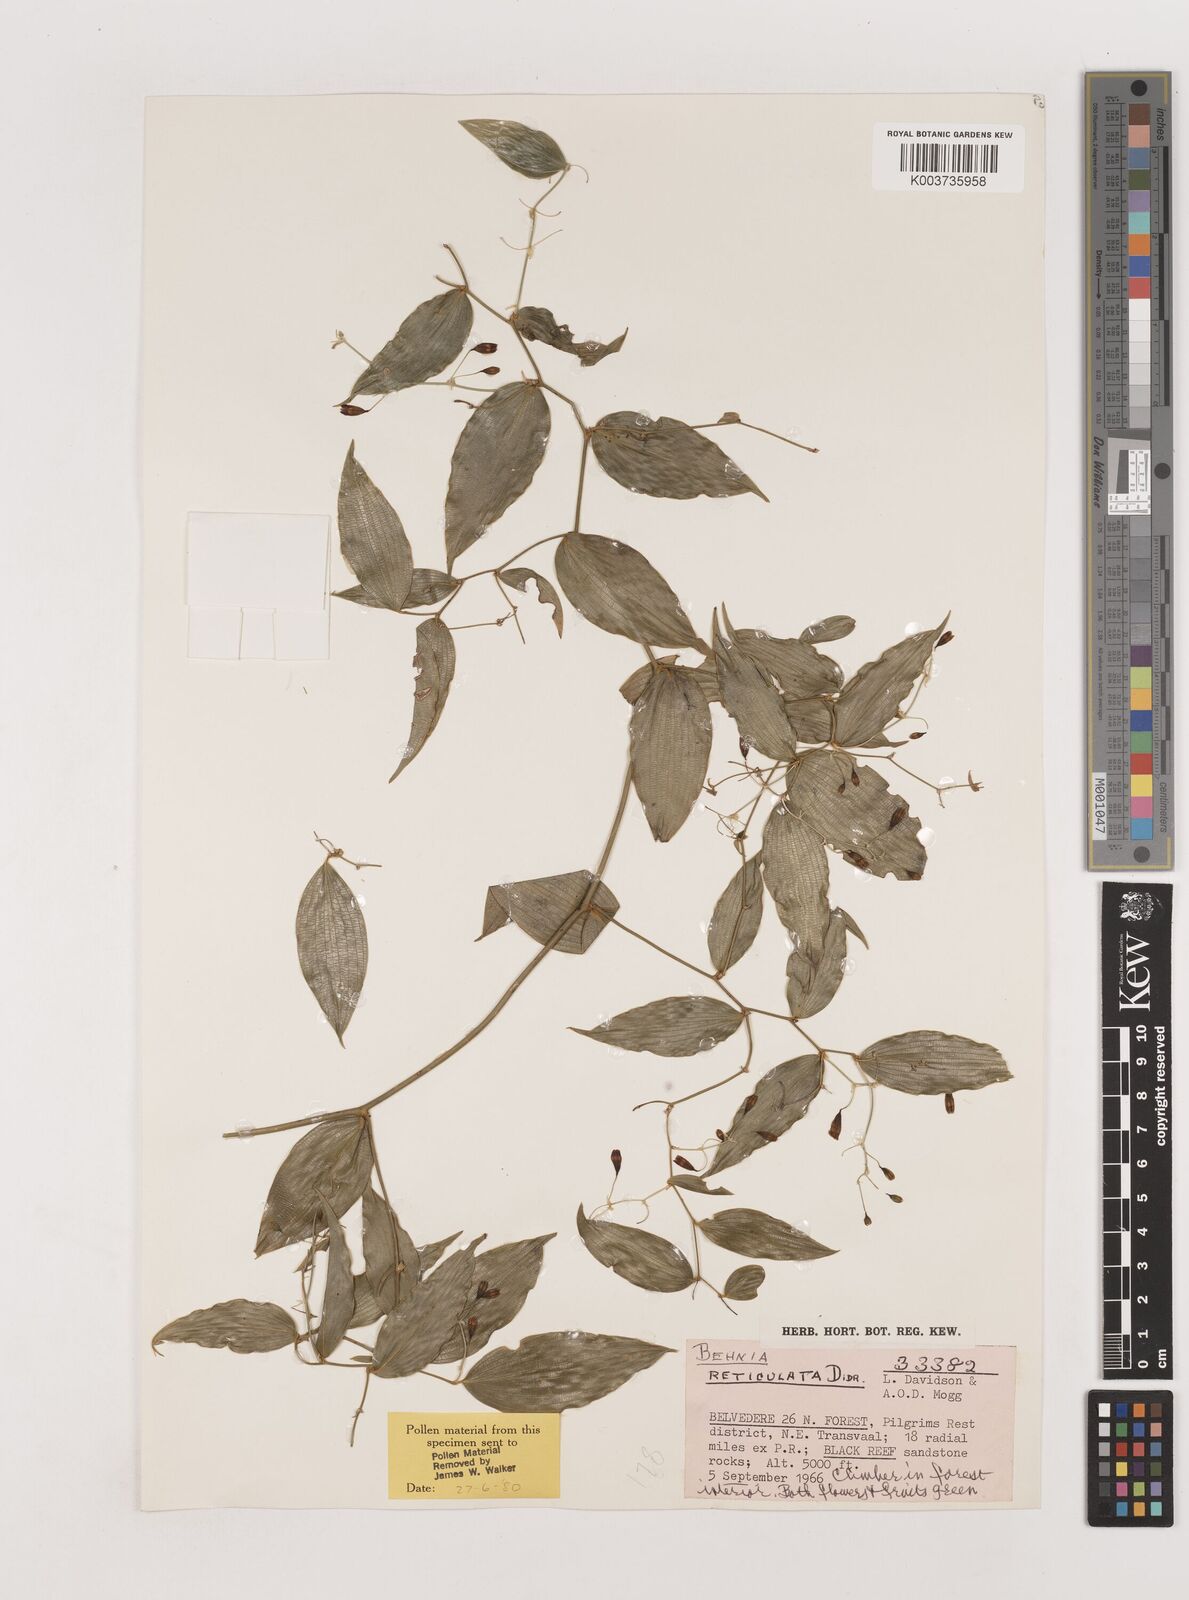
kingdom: Plantae
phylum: Tracheophyta
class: Liliopsida
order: Asparagales
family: Asparagaceae
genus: Behnia
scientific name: Behnia reticulata
